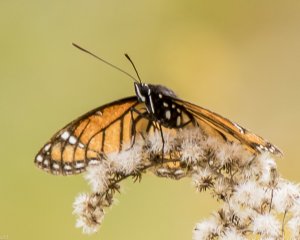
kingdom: Animalia
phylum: Arthropoda
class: Insecta
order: Lepidoptera
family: Nymphalidae
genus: Limenitis
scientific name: Limenitis archippus
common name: Viceroy
